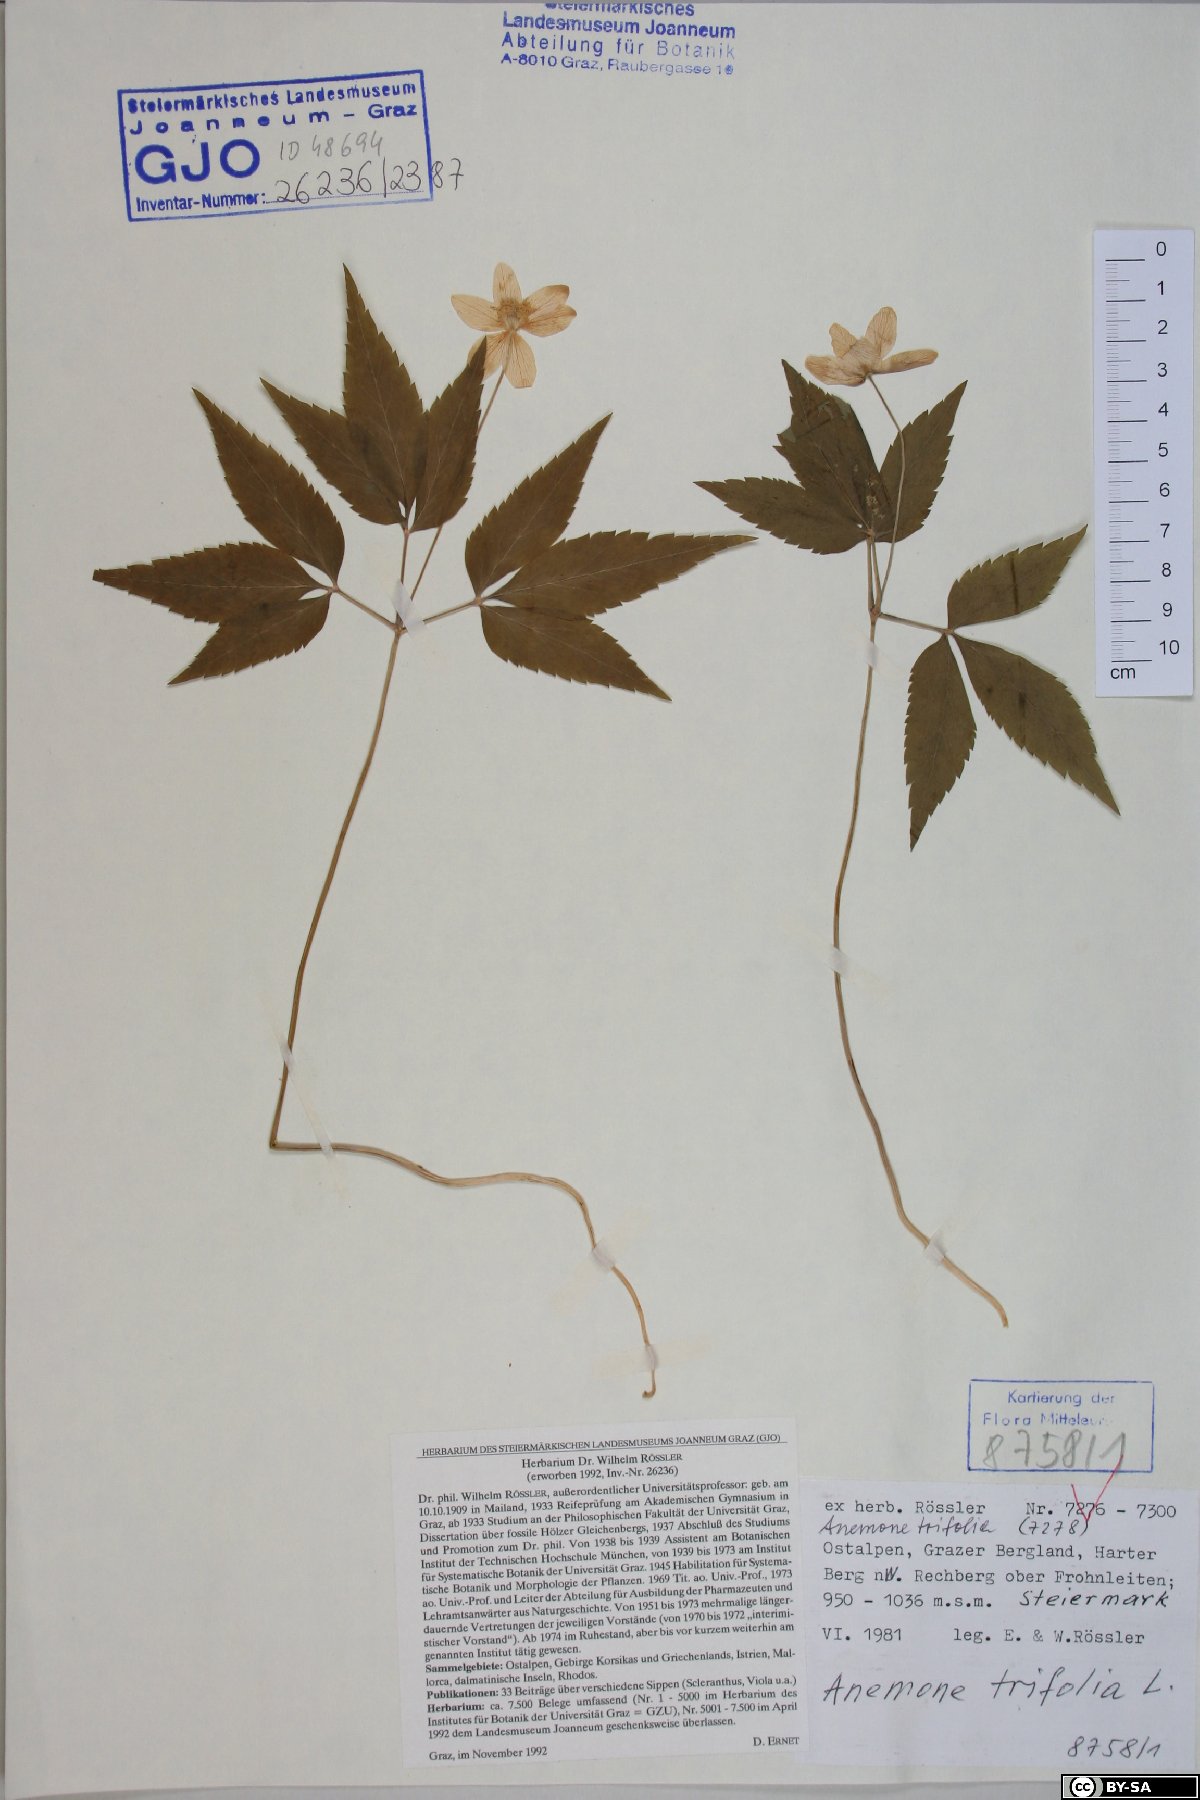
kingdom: Plantae
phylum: Tracheophyta
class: Magnoliopsida
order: Ranunculales
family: Ranunculaceae
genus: Anemone
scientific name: Anemone trifolia
